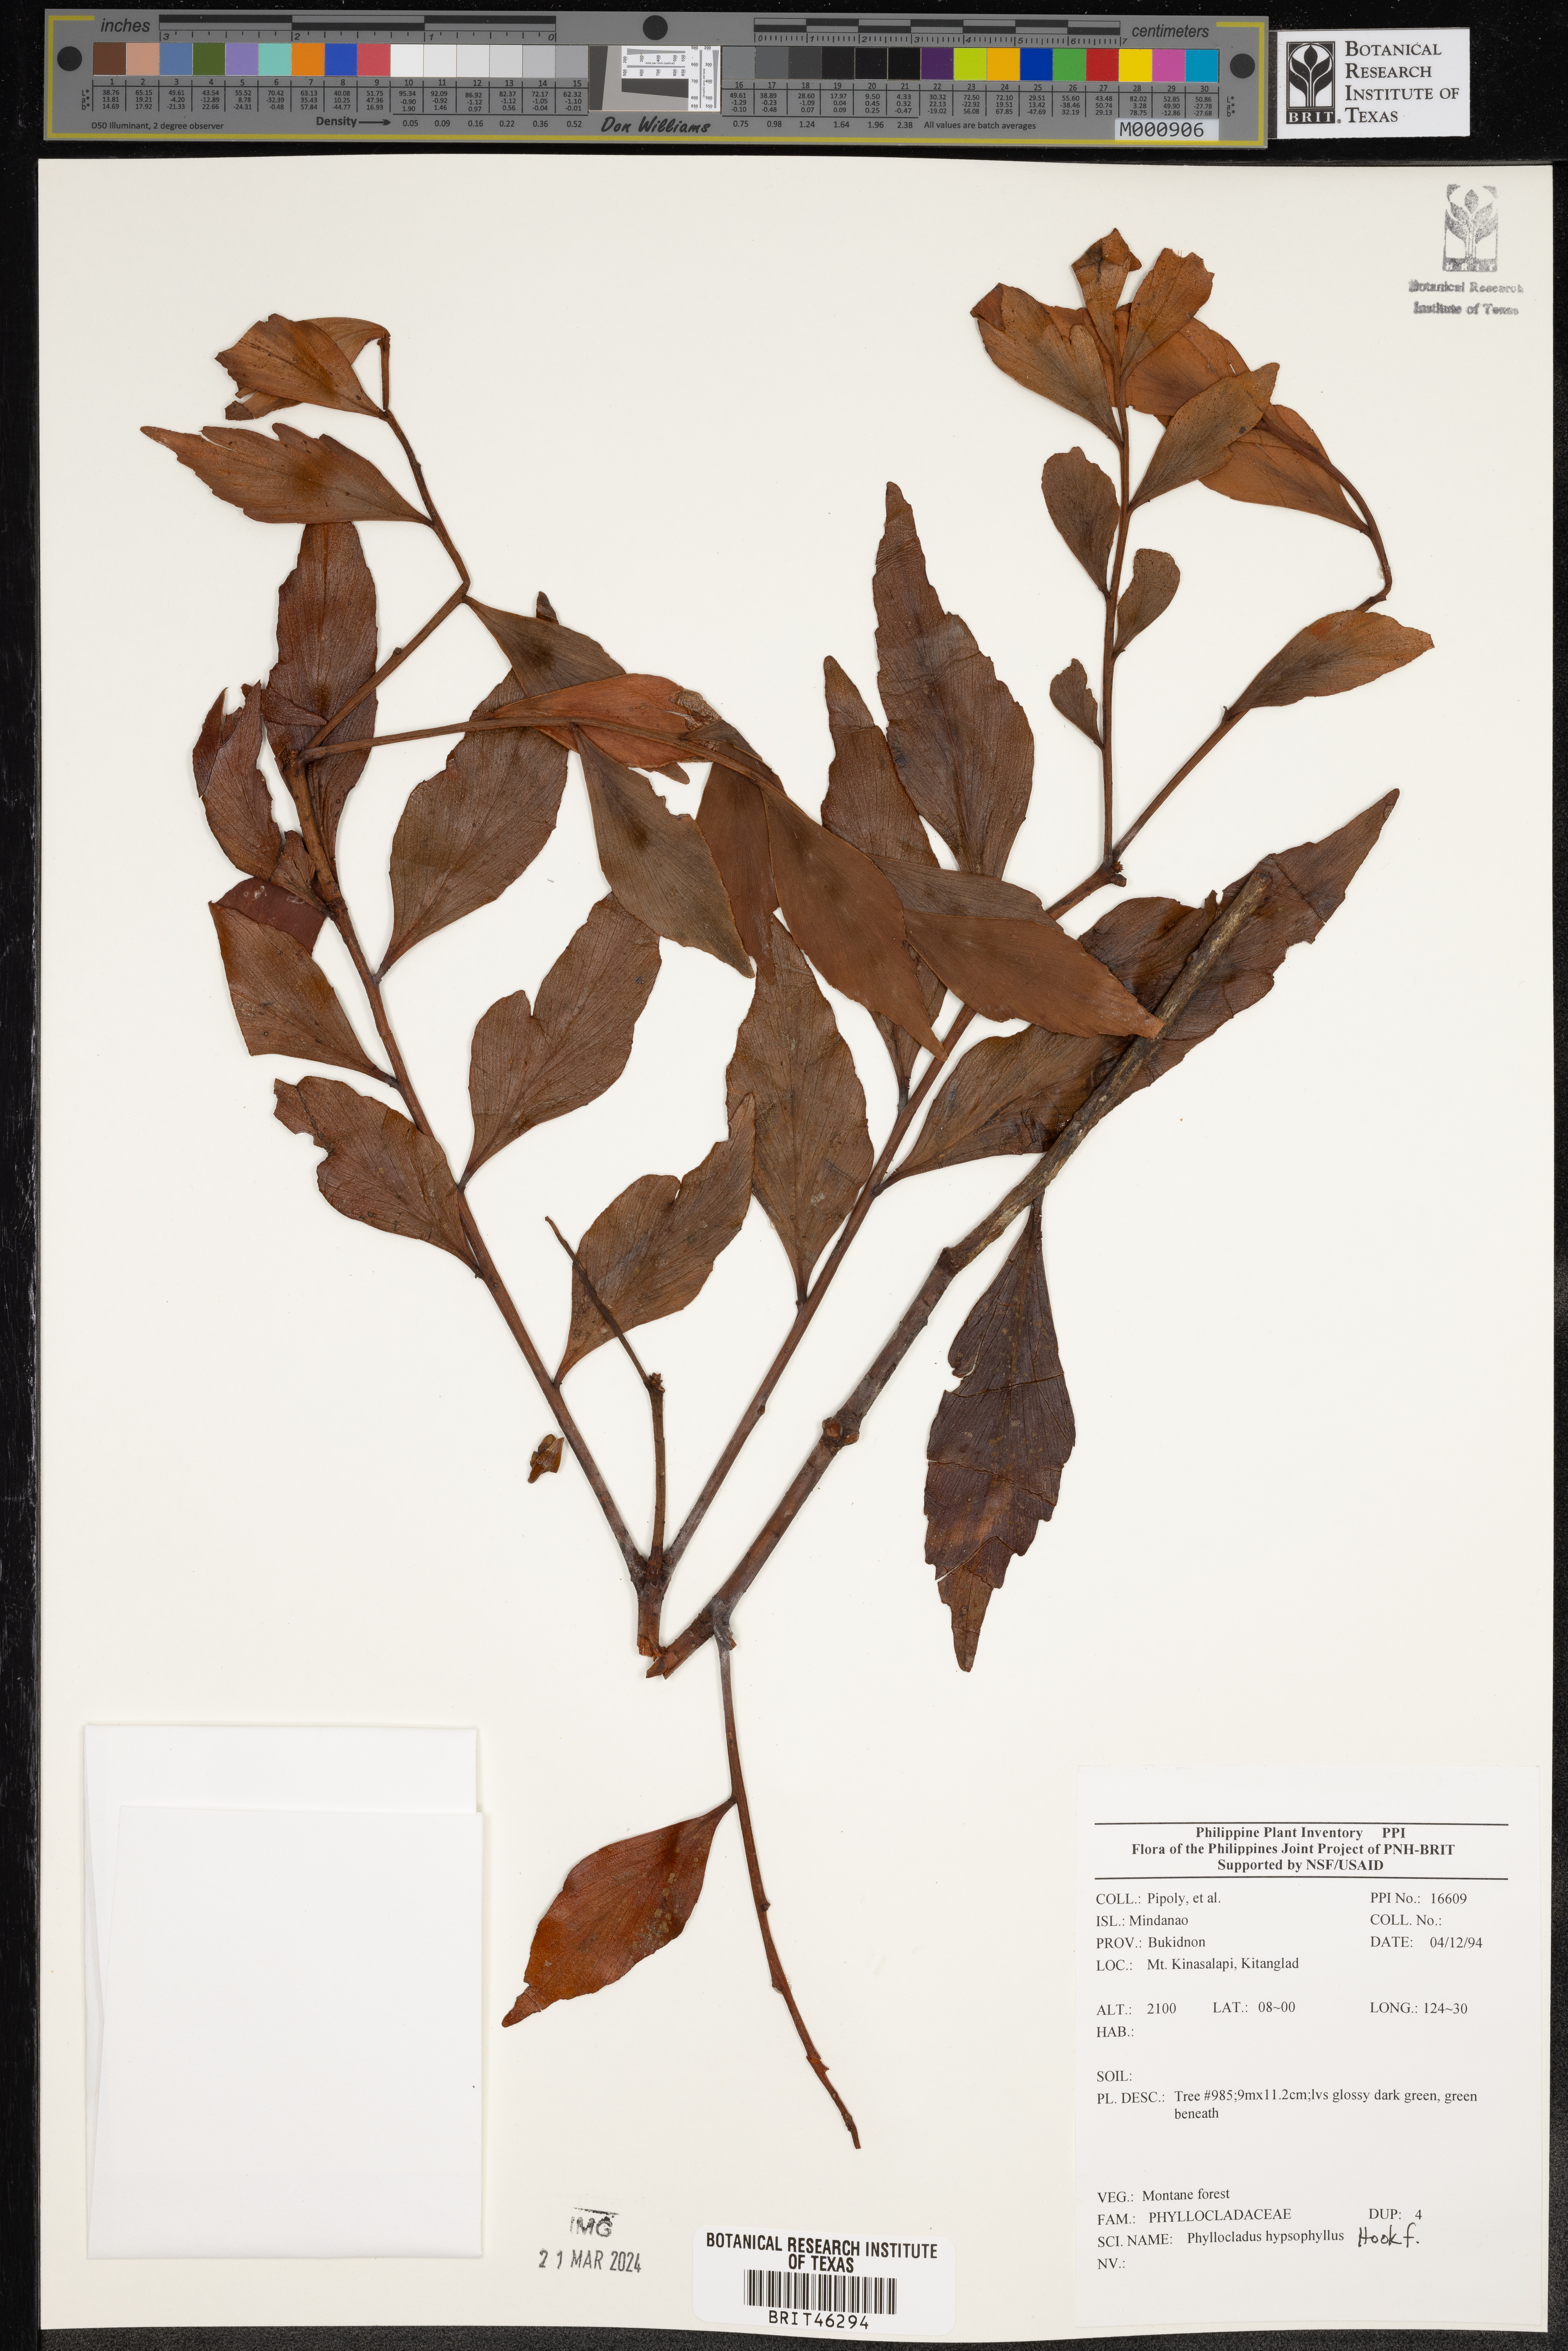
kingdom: Plantae
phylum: Tracheophyta
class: Pinopsida
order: Pinales
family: Phyllocladaceae
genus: Phyllocladus
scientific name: Phyllocladus hypophyllus
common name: Celery pine
